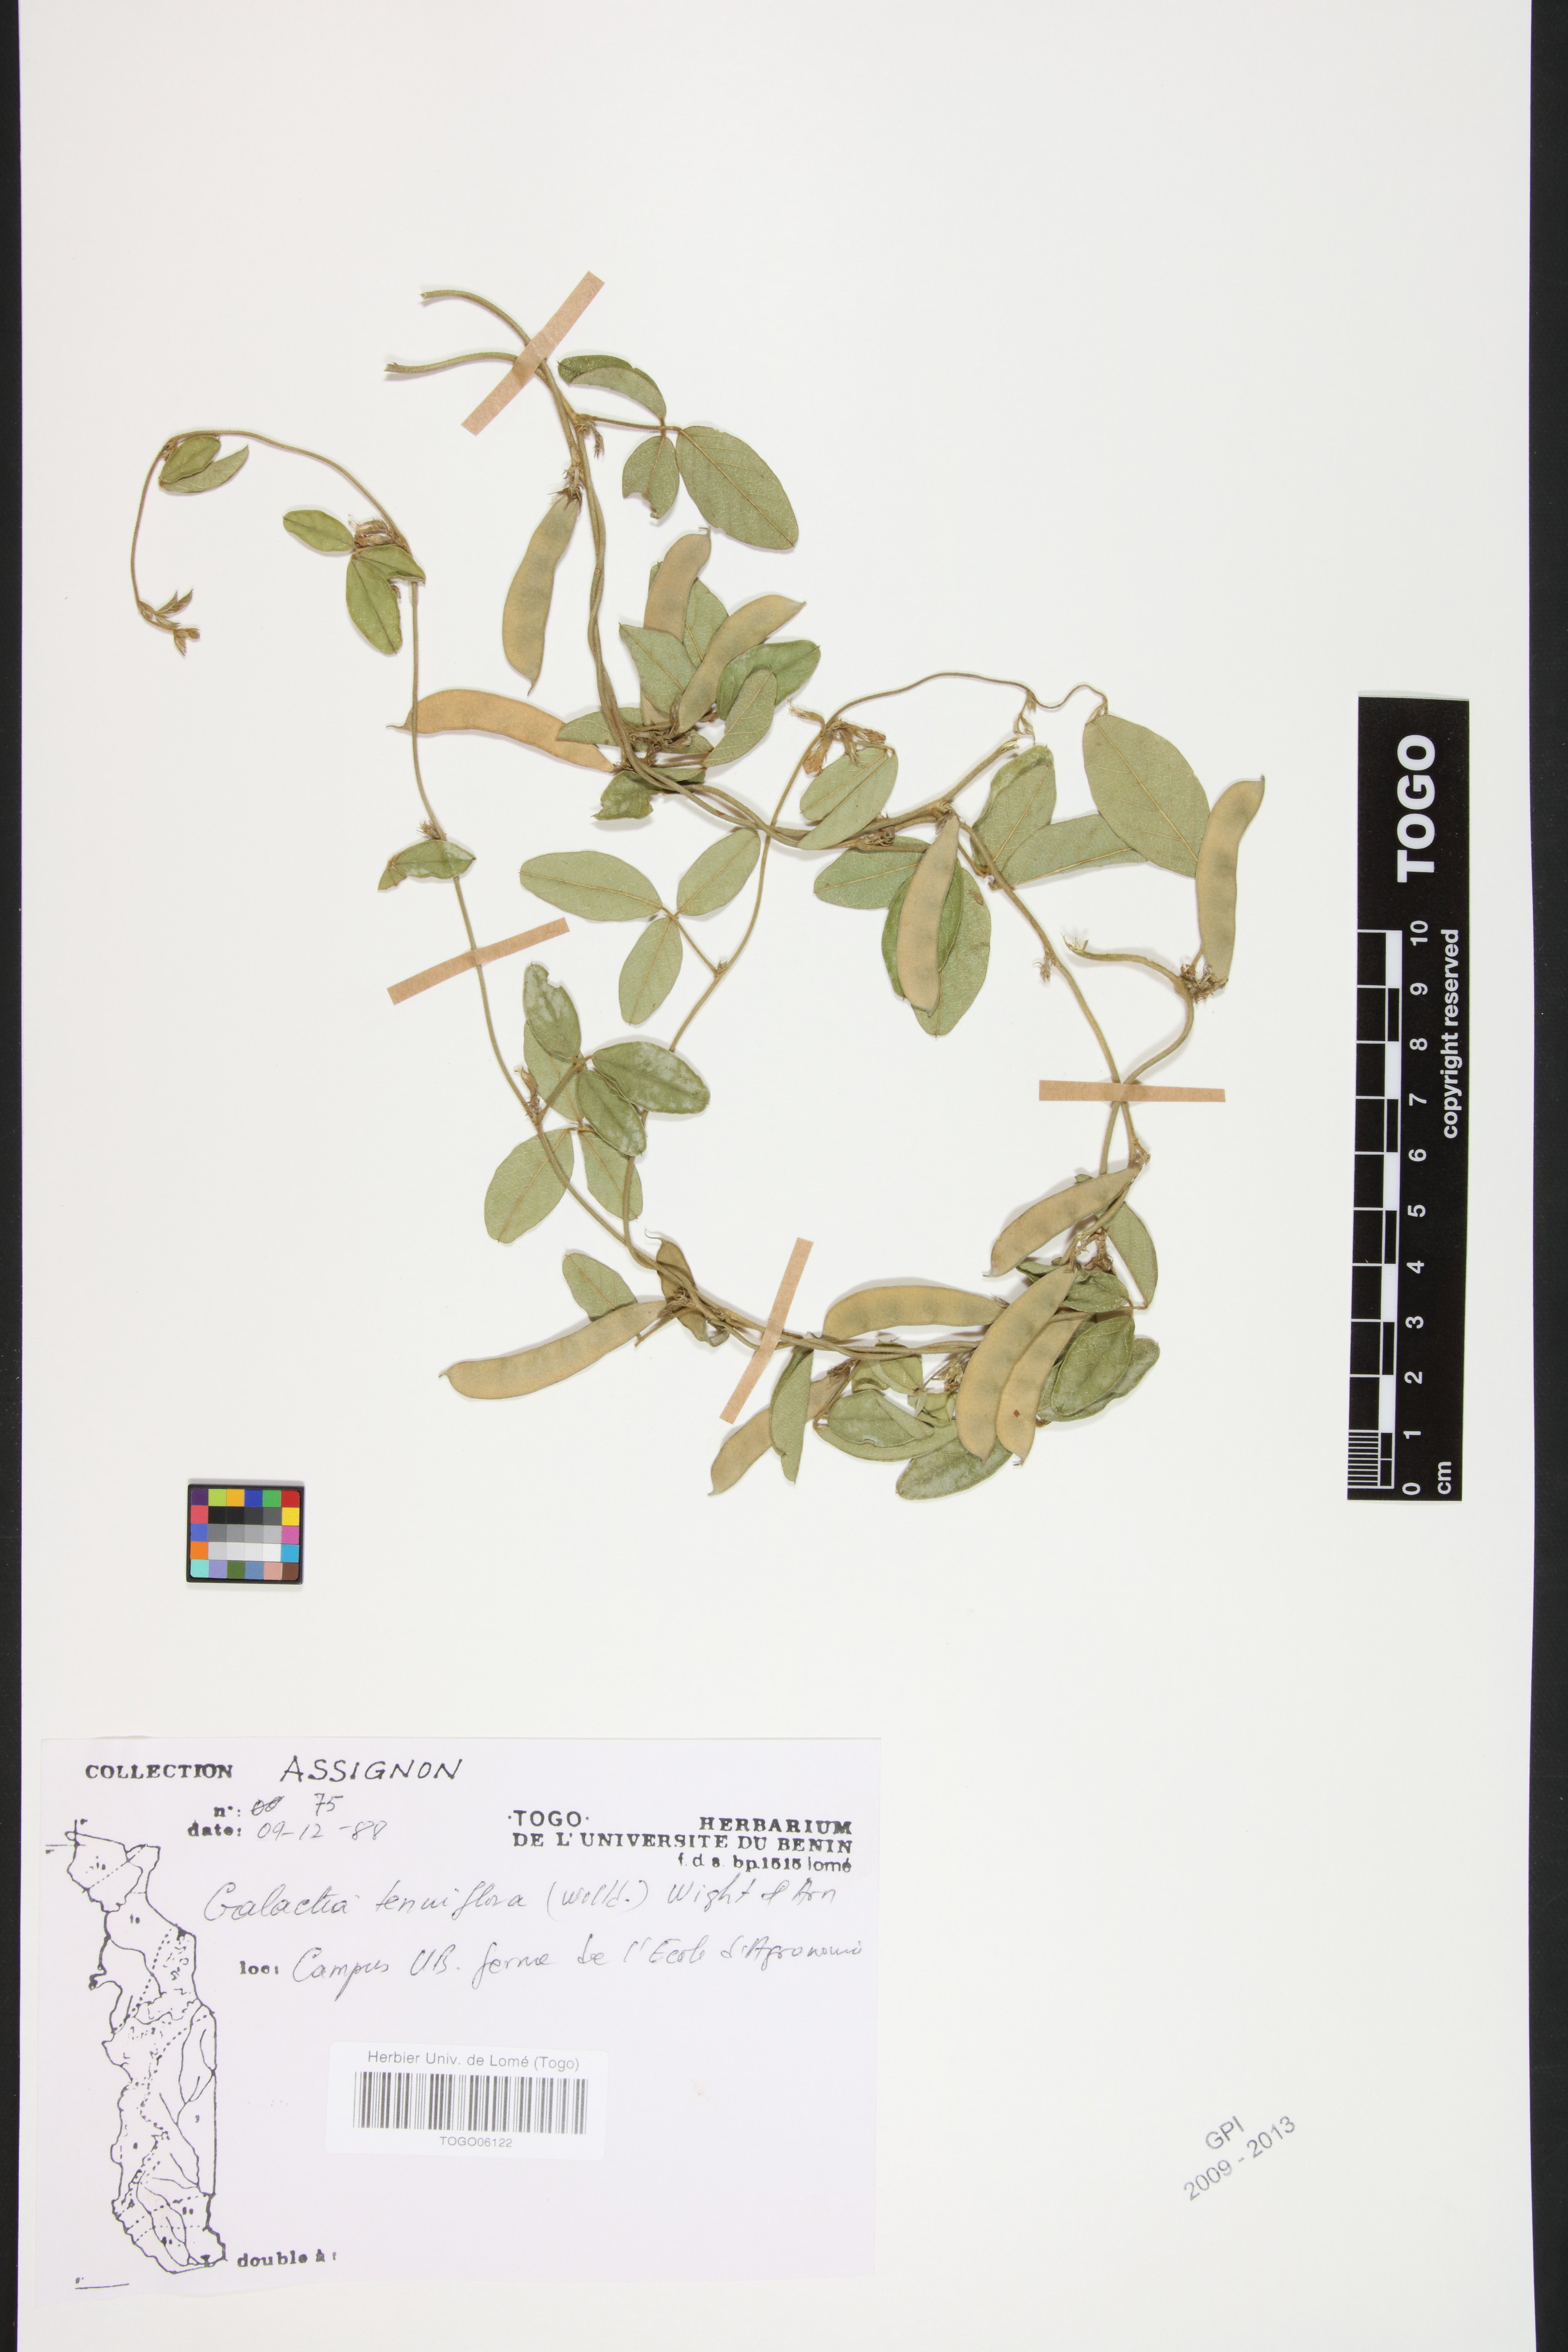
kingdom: Plantae
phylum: Tracheophyta
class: Magnoliopsida
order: Fabales
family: Fabaceae
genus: Galactia
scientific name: Galactia striata
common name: Florida hammock milkpea
